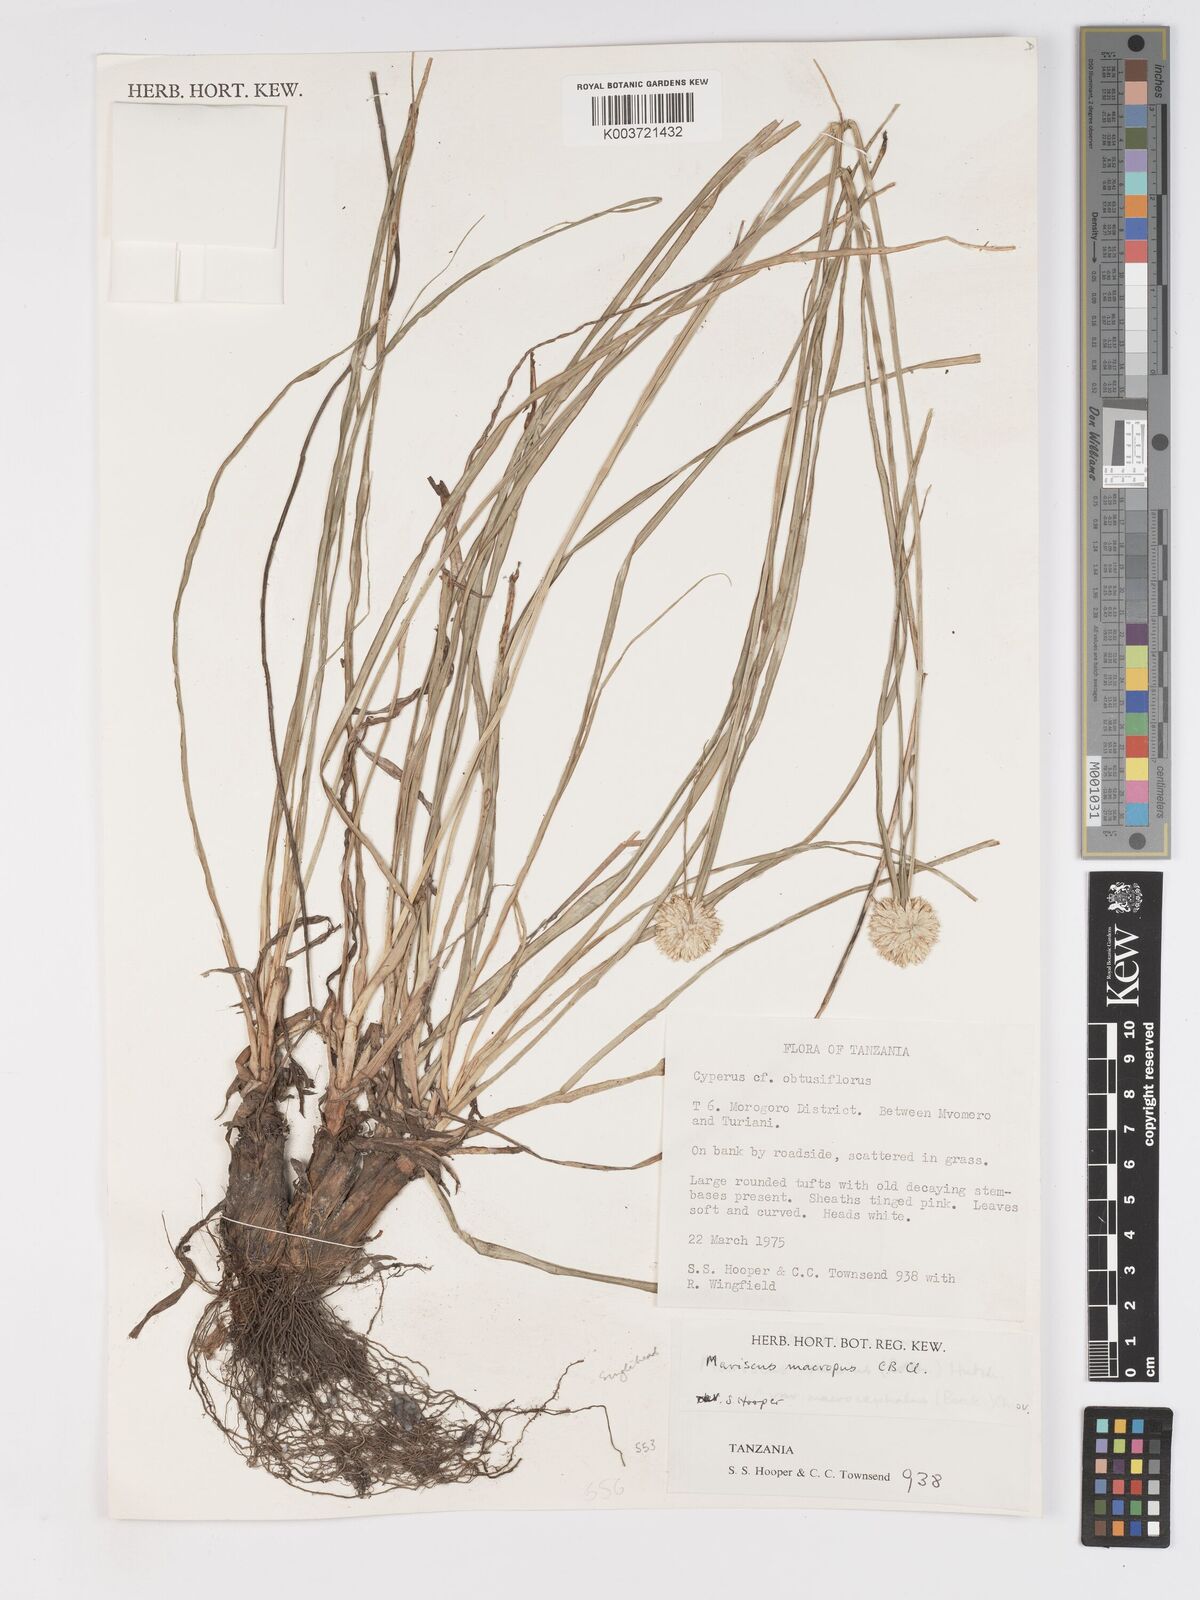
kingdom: Plantae
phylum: Tracheophyta
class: Liliopsida
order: Poales
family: Cyperaceae
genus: Cyperus
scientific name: Cyperus mollipes
